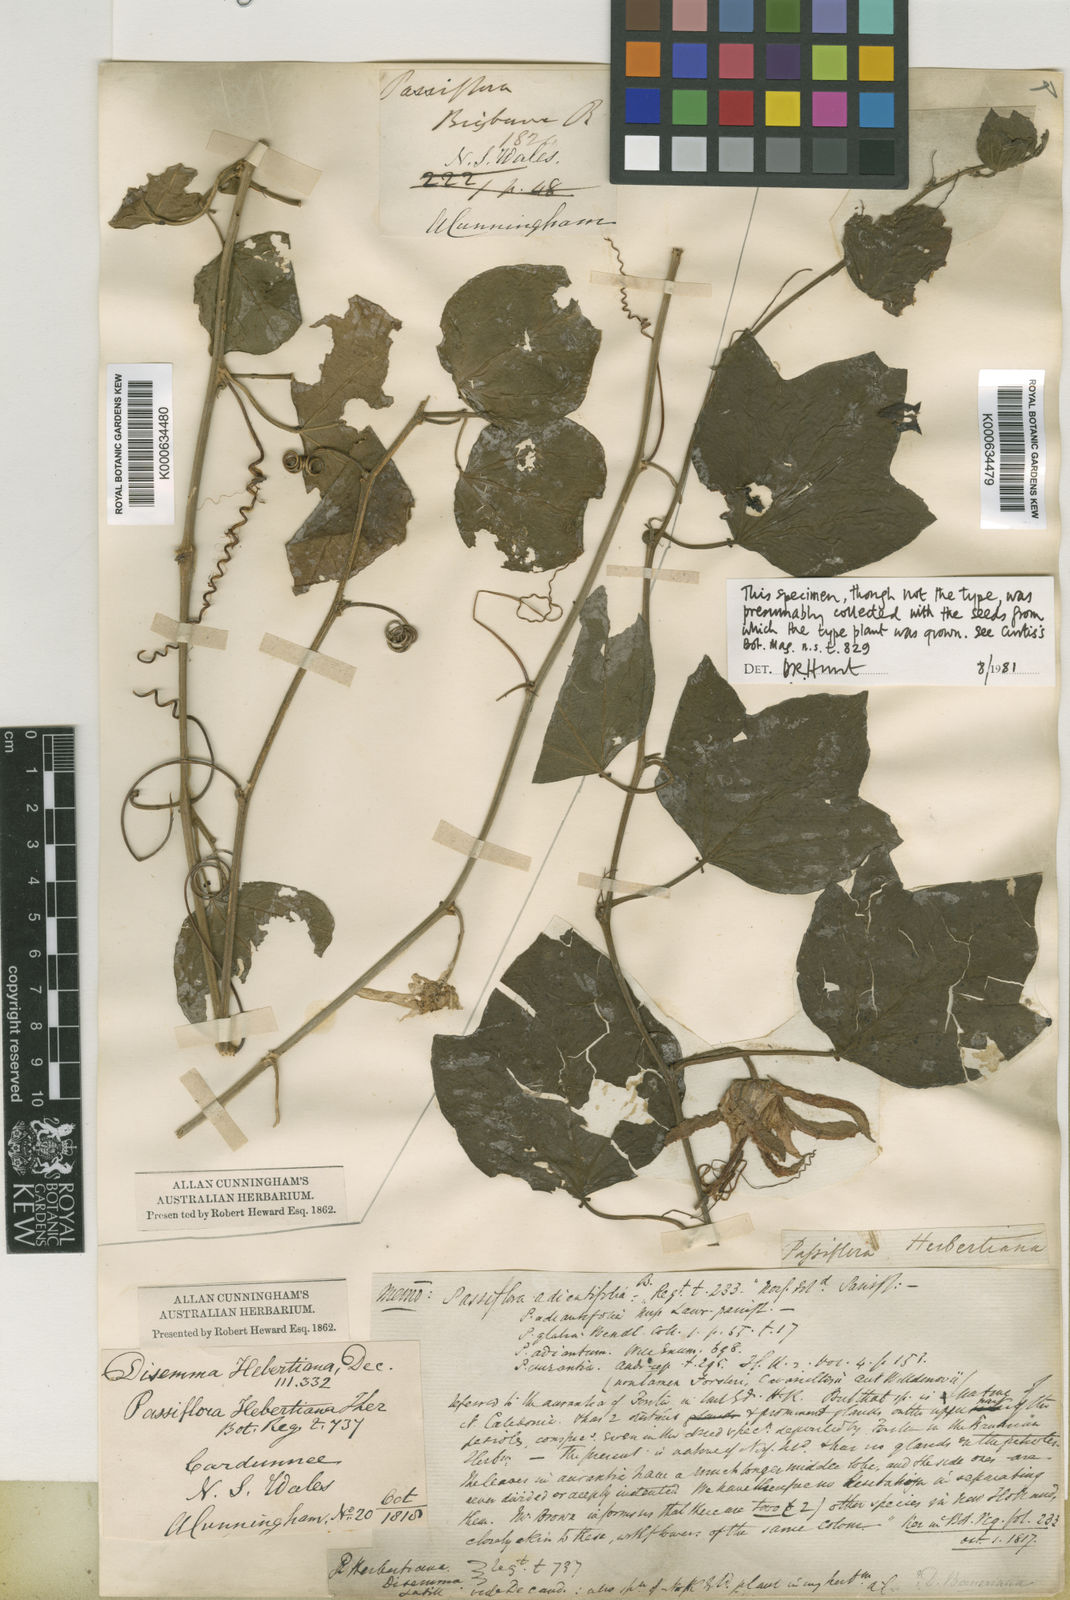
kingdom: Plantae
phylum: Tracheophyta
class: Magnoliopsida
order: Malpighiales
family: Passifloraceae
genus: Passiflora
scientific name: Passiflora herbertiana
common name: Yellow passionflower
